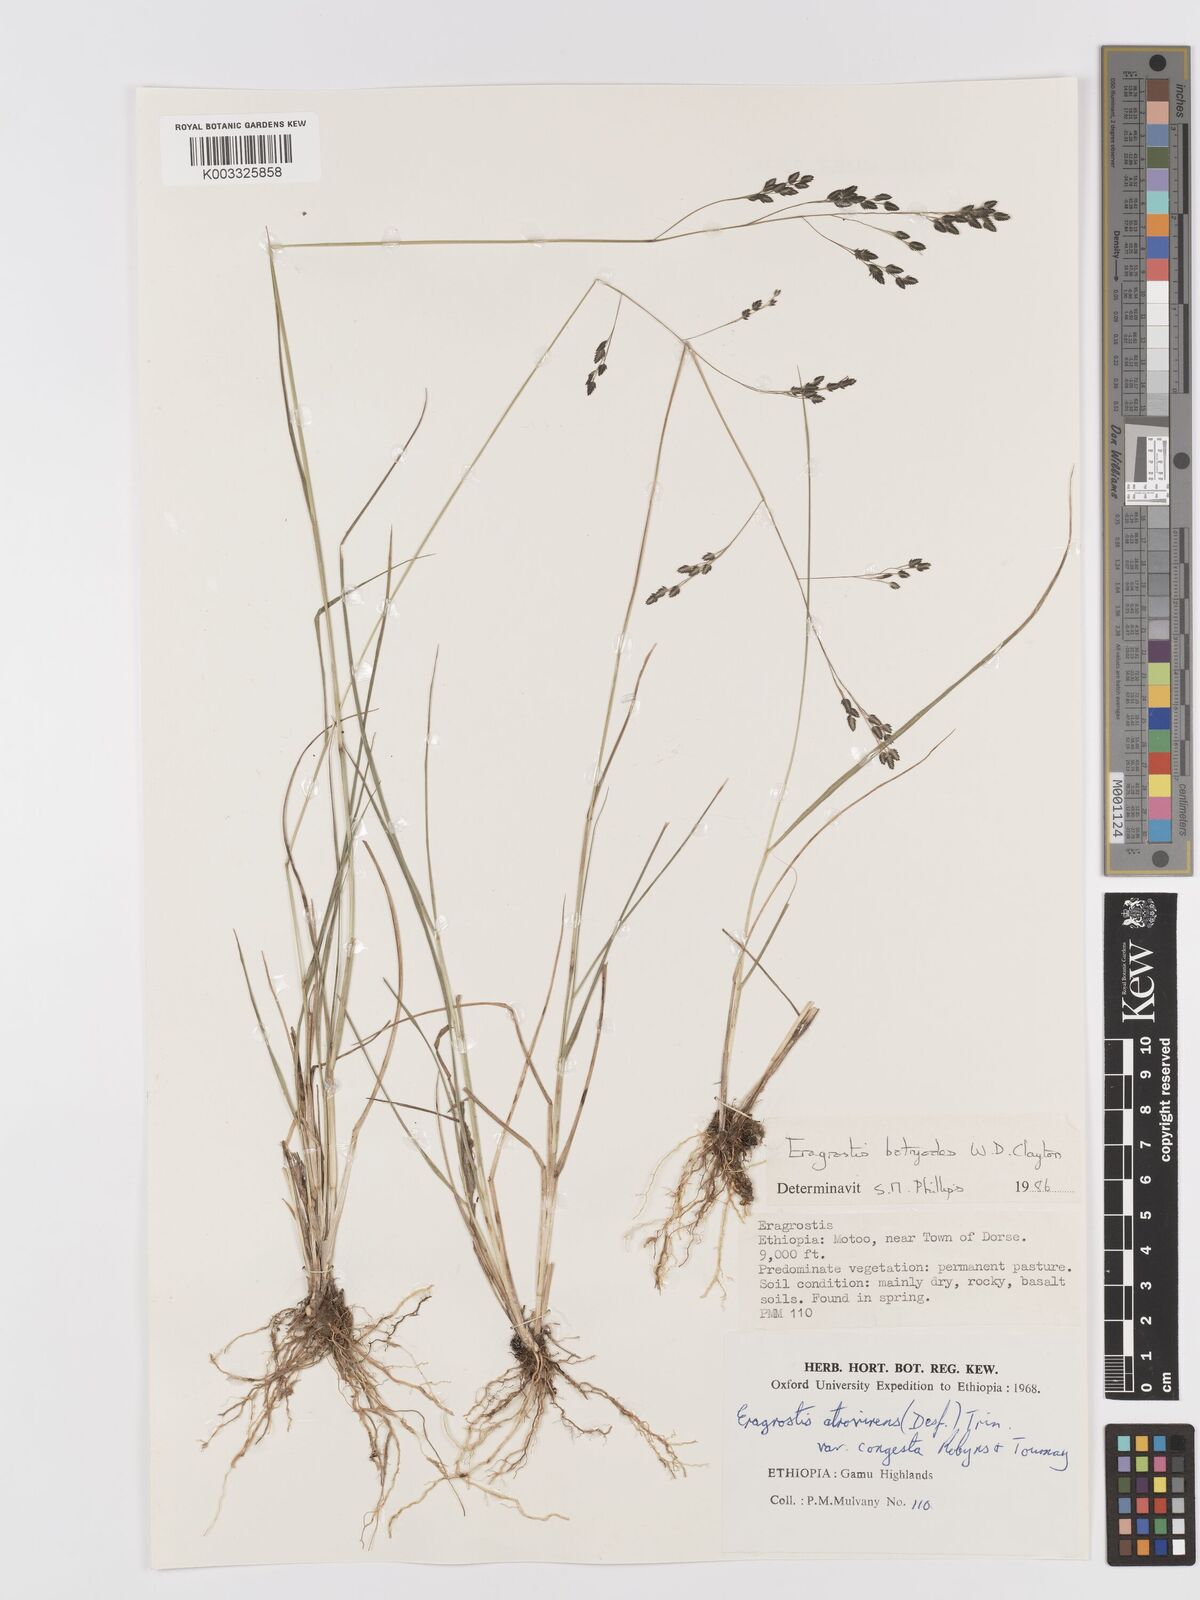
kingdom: Plantae
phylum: Tracheophyta
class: Liliopsida
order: Poales
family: Poaceae
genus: Eragrostis
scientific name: Eragrostis botryodes
